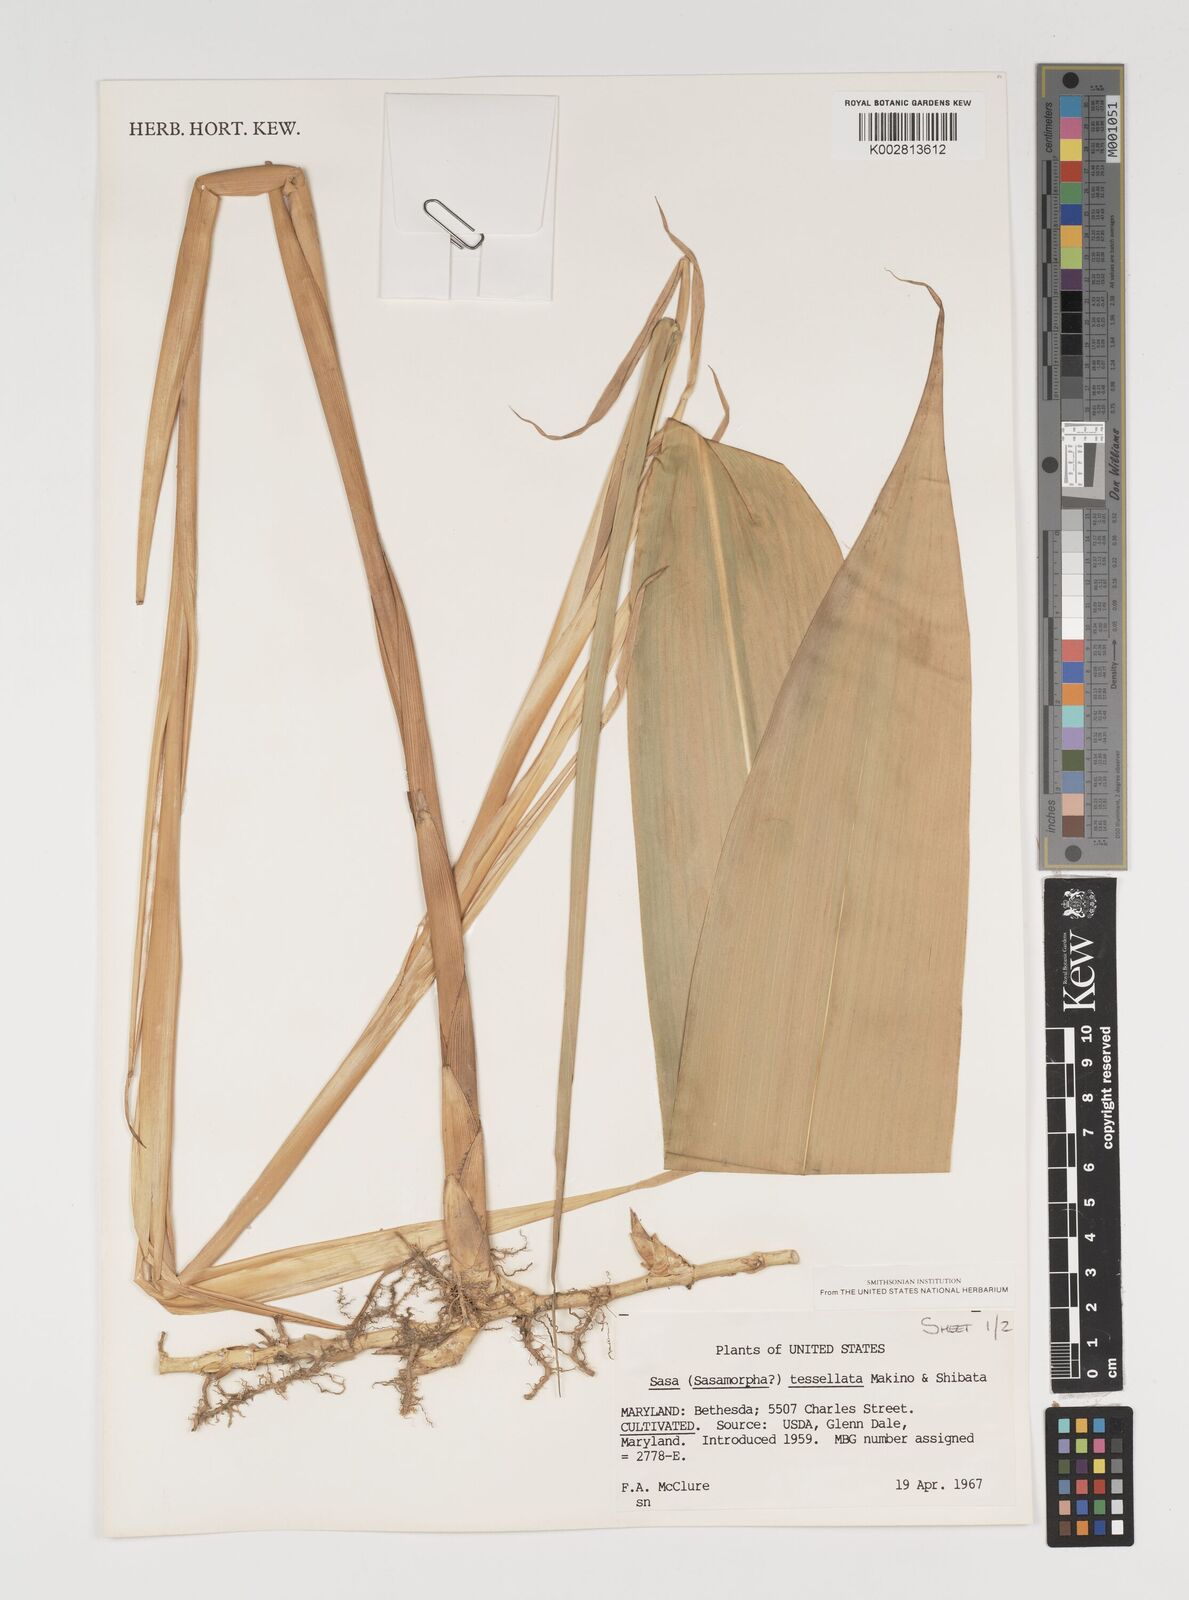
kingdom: Plantae
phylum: Tracheophyta
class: Liliopsida
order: Poales
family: Poaceae
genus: Indocalamus
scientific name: Indocalamus tessellatus
